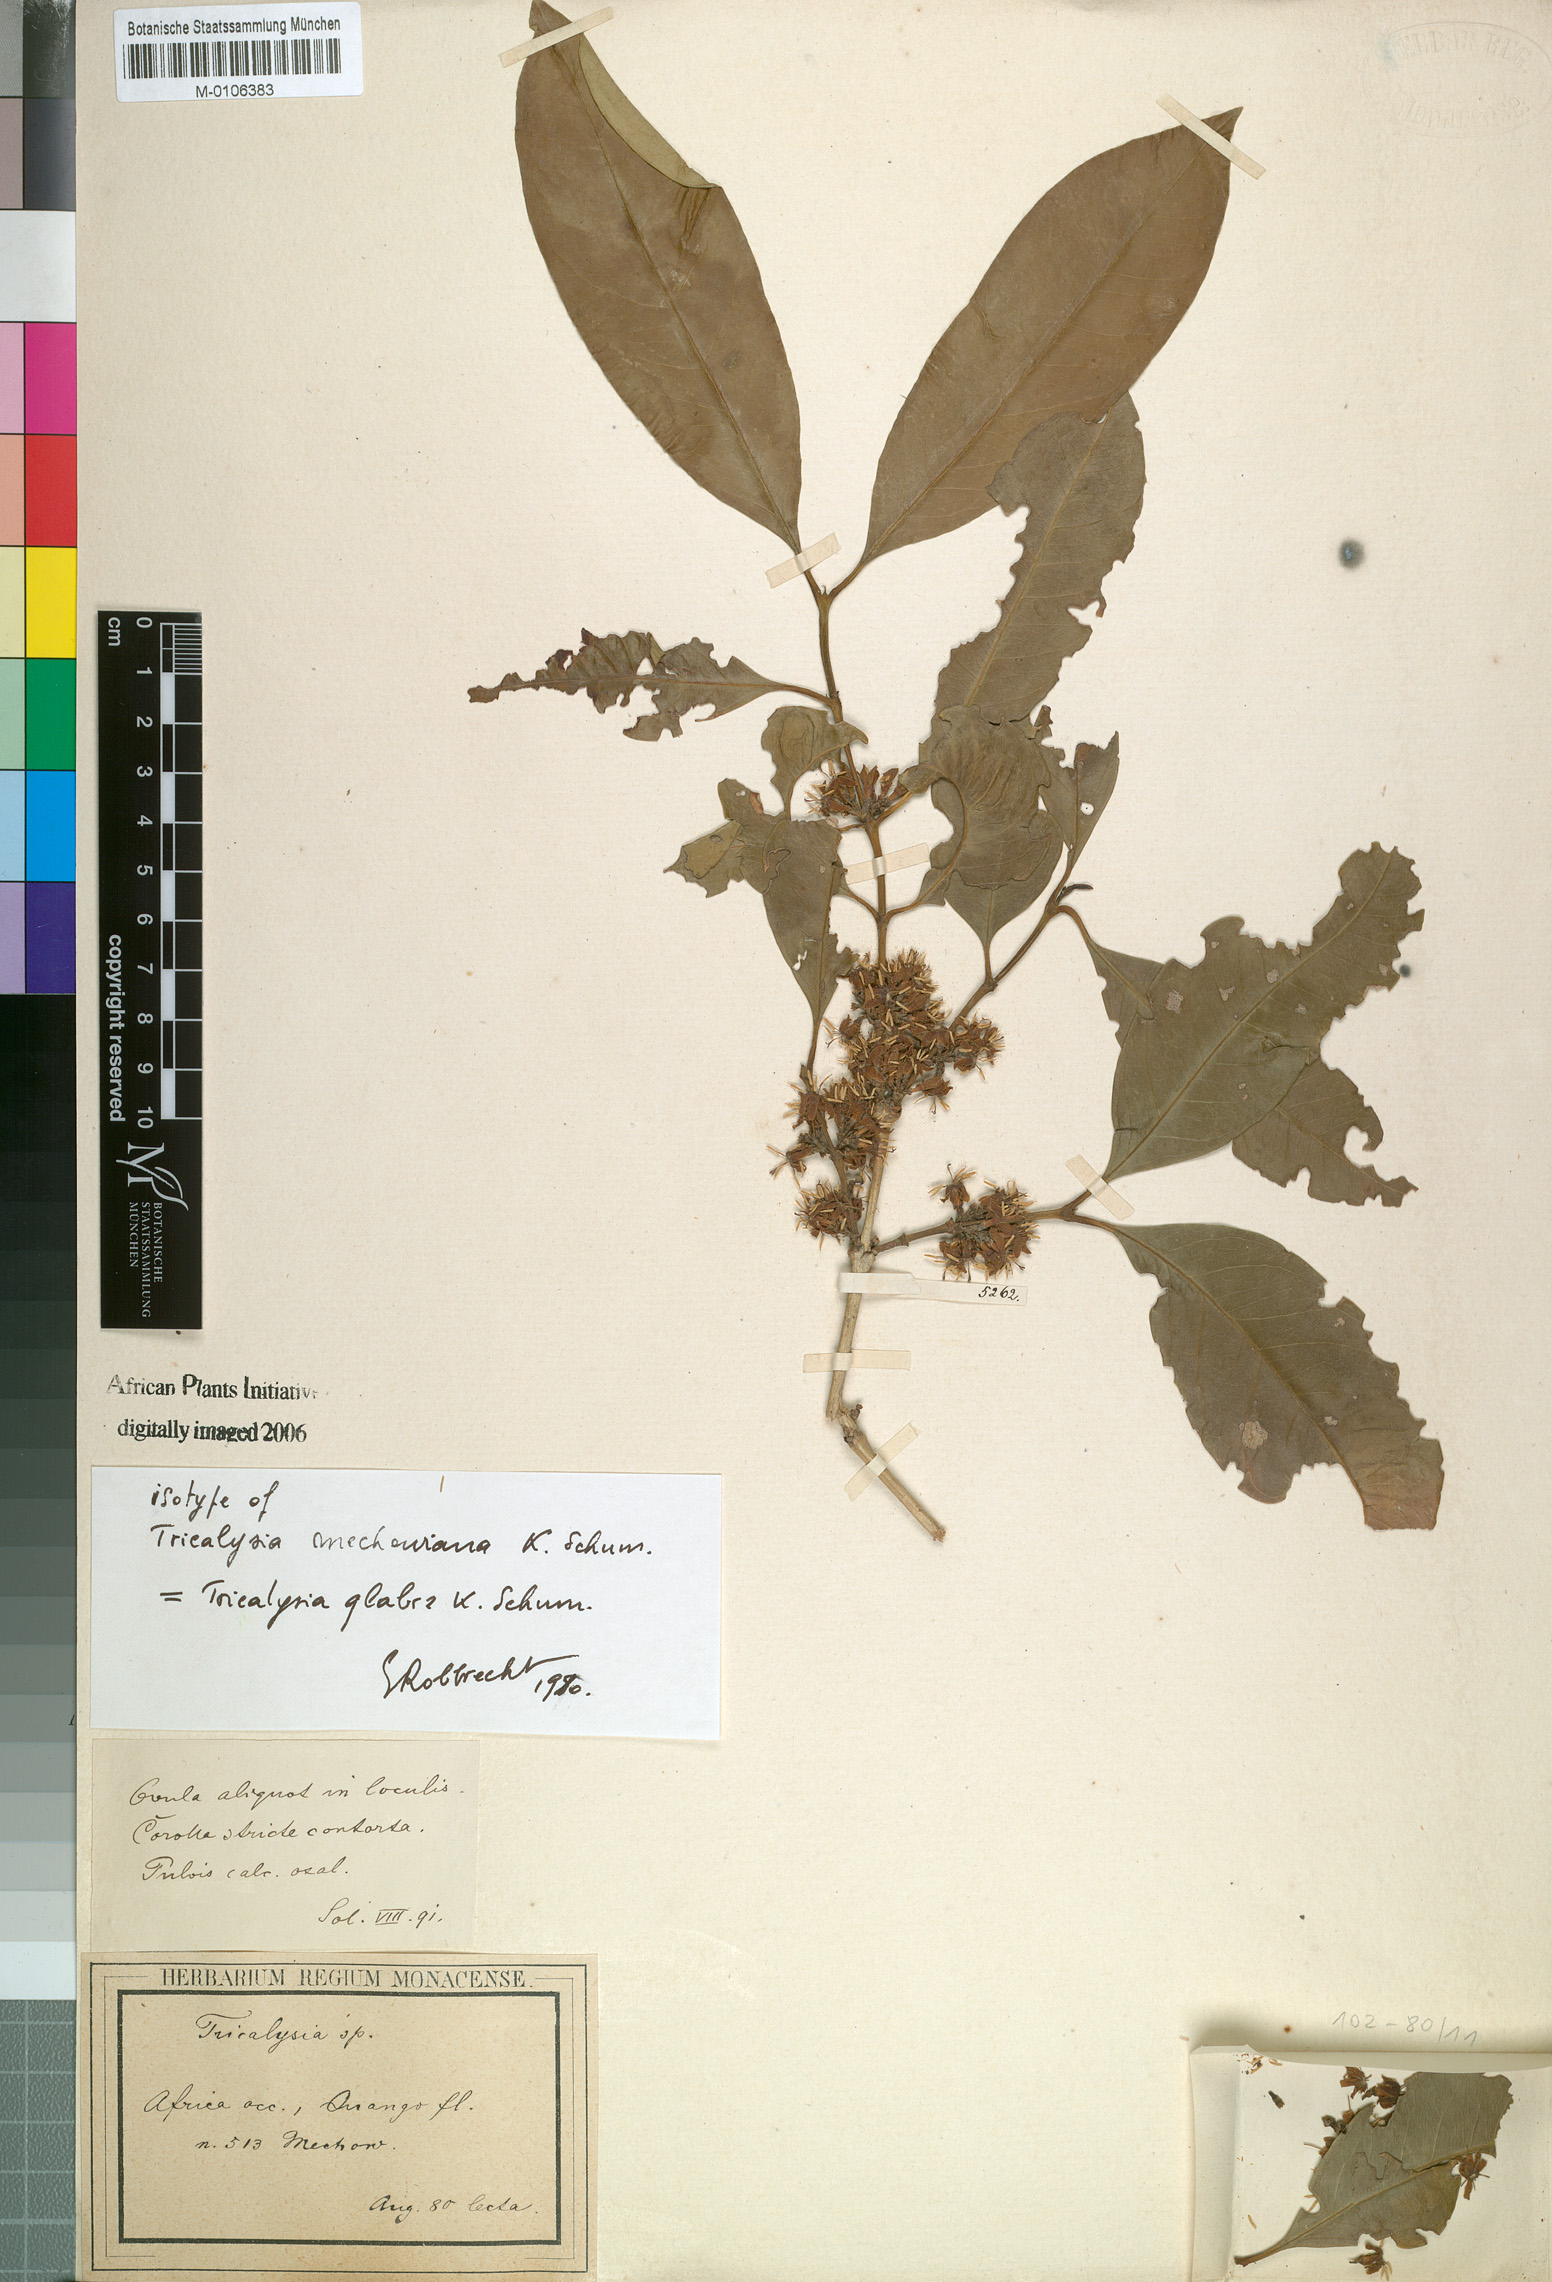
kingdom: Plantae
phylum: Tracheophyta
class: Magnoliopsida
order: Gentianales
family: Rubiaceae
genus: Empogona
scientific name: Empogona glabra
